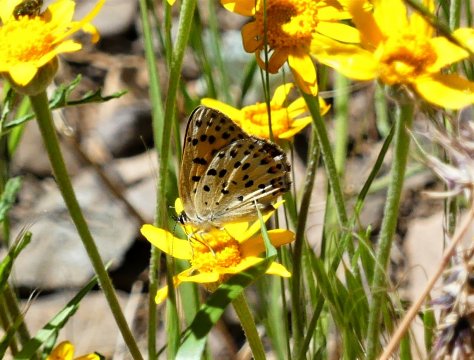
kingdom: Animalia
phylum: Arthropoda
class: Insecta
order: Lepidoptera
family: Lycaenidae
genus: Lycaena
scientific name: Lycaena gorgon
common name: Gorgon Copper
